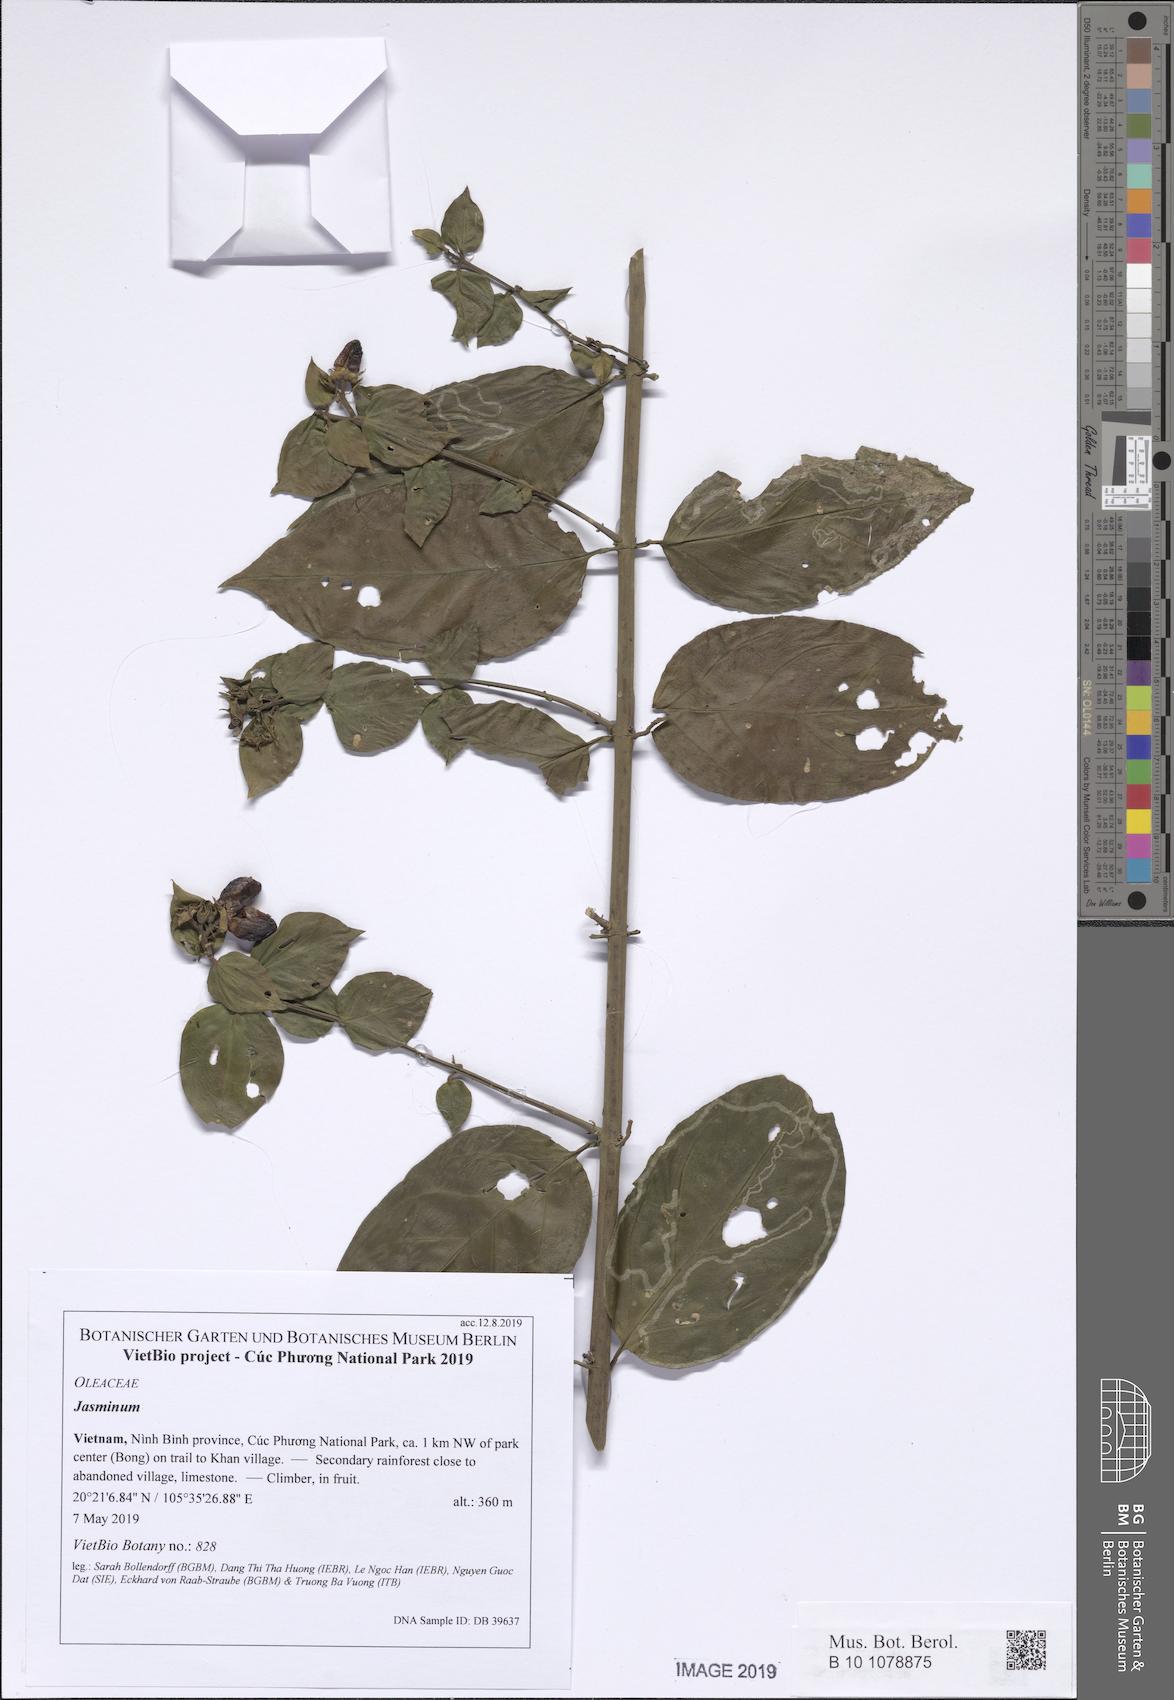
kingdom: Plantae
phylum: Tracheophyta
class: Magnoliopsida
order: Lamiales
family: Oleaceae
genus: Jasminum
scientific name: Jasminum
